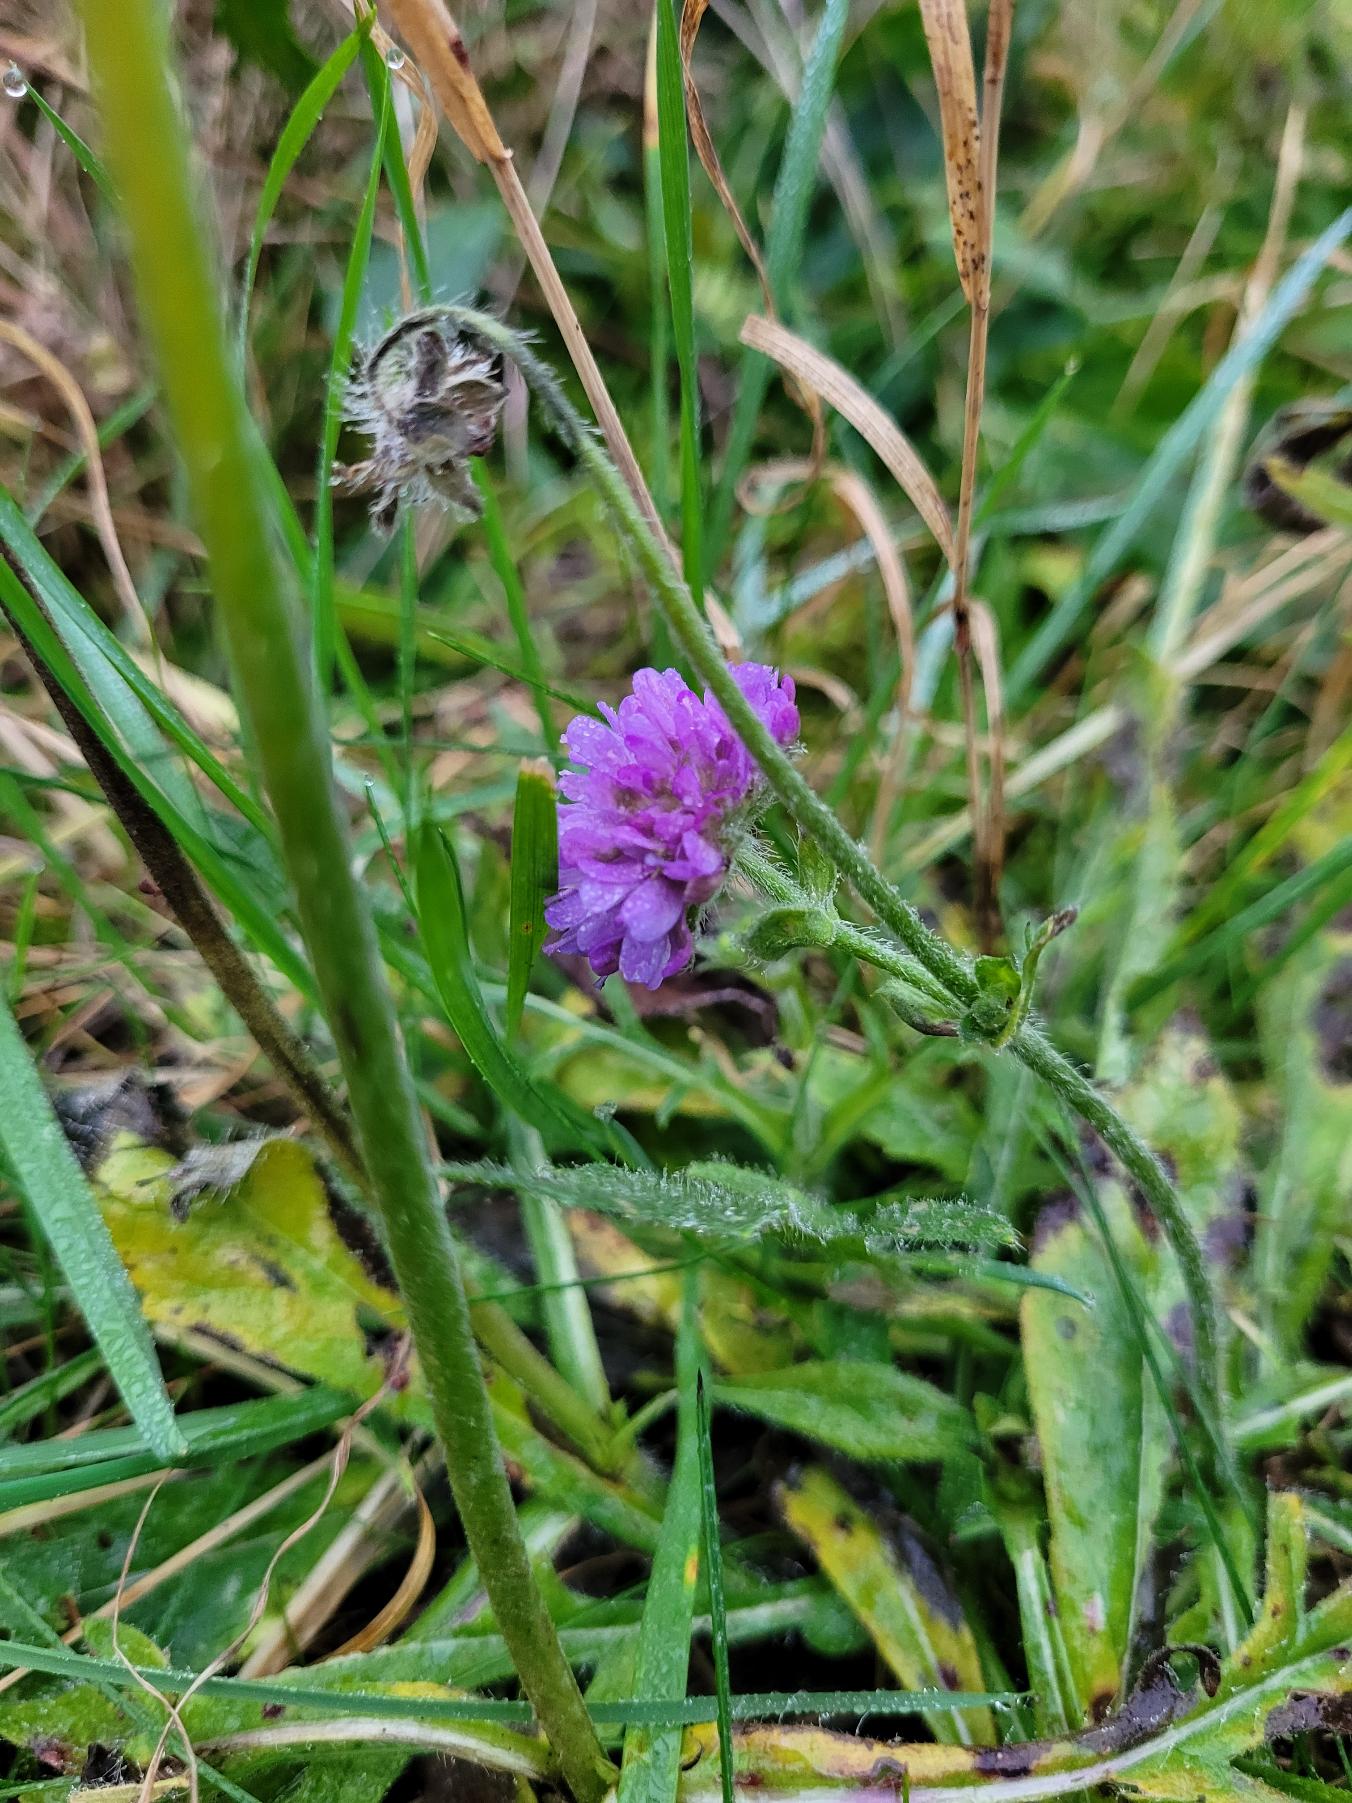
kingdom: Plantae
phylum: Tracheophyta
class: Magnoliopsida
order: Dipsacales
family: Caprifoliaceae
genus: Knautia
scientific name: Knautia arvensis
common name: Blåhat
